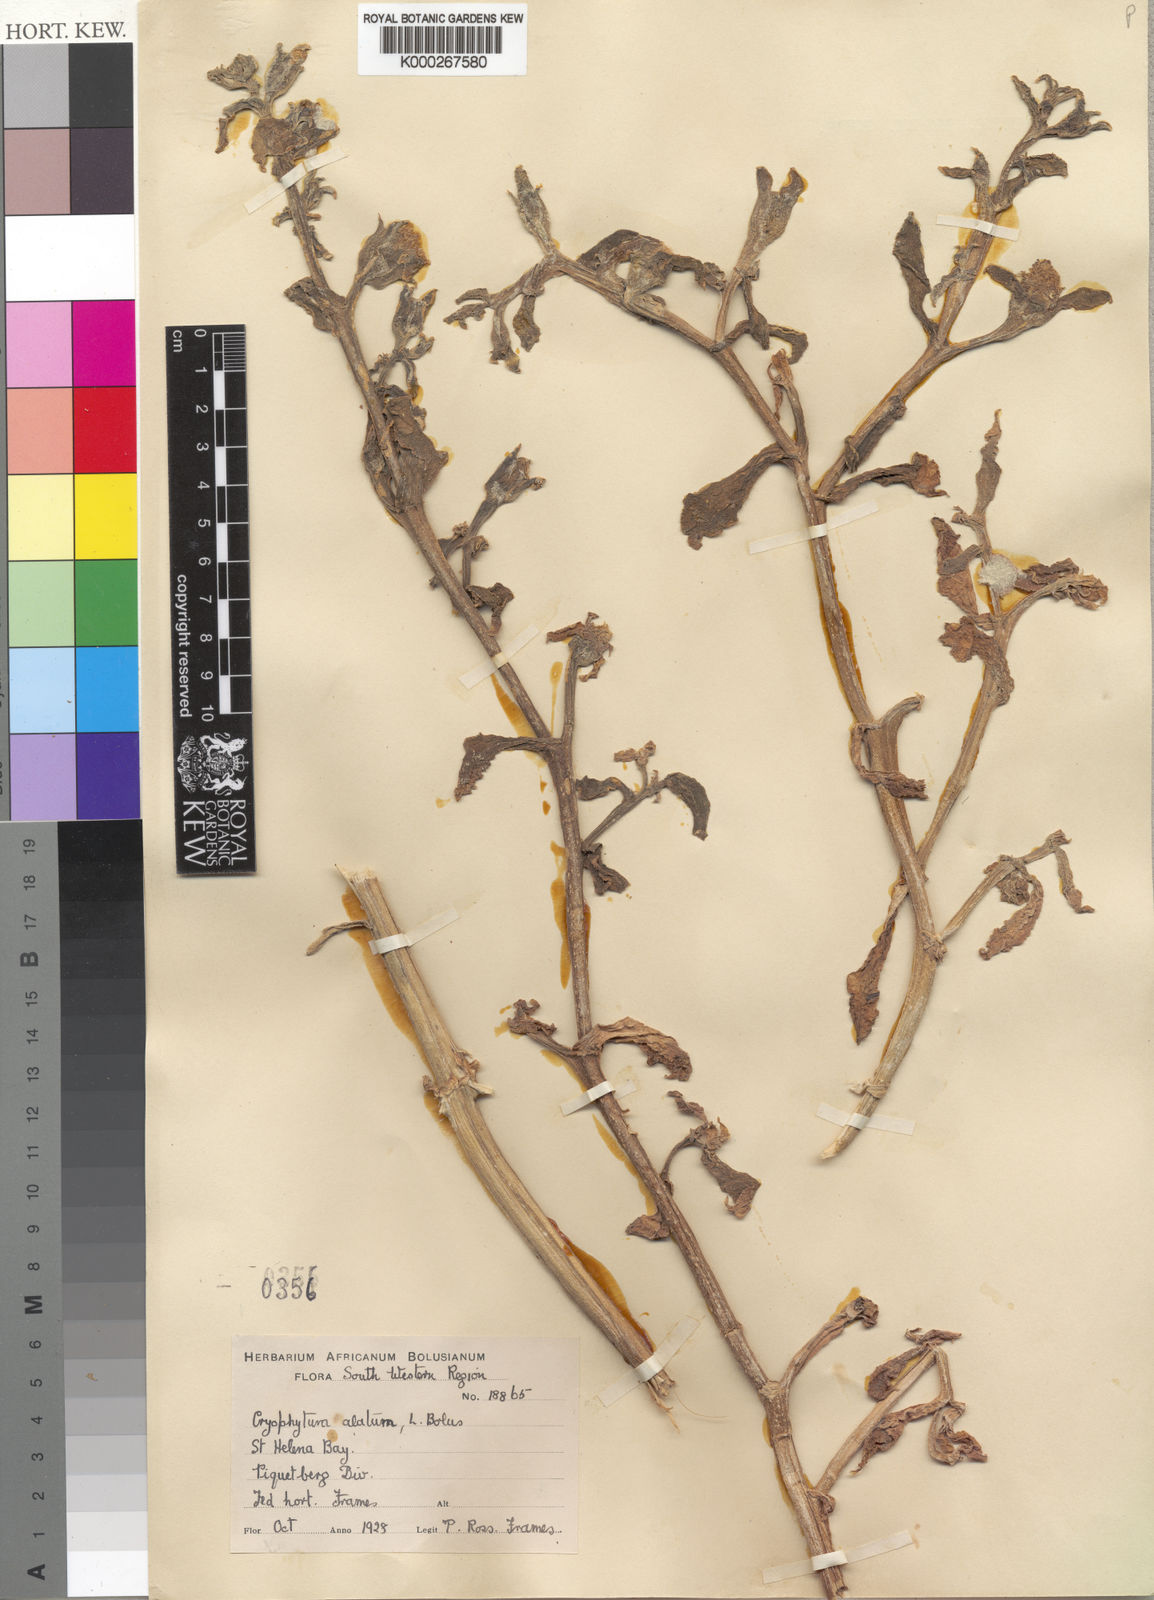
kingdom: Plantae
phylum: Tracheophyta
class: Magnoliopsida
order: Caryophyllales
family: Aizoaceae
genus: Mesembryanthemum
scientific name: Mesembryanthemum guerichianum
